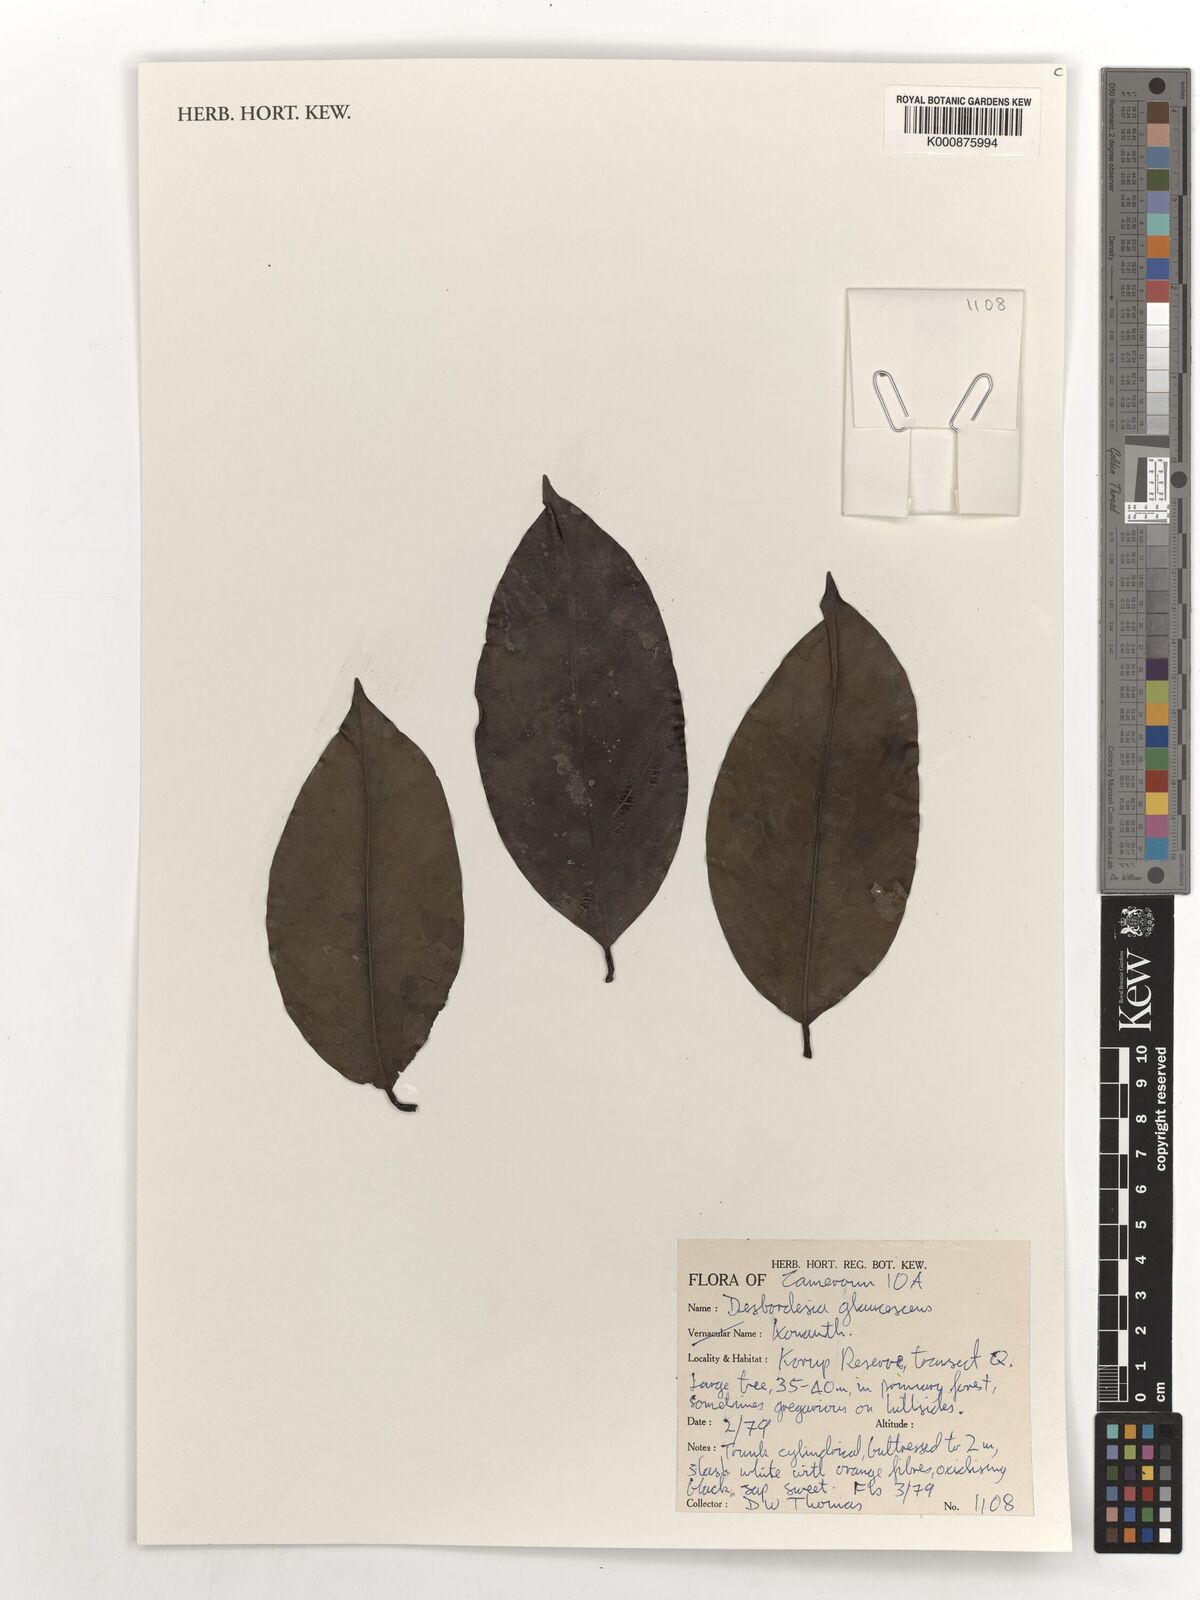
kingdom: Plantae
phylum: Tracheophyta
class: Magnoliopsida
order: Malpighiales
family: Irvingiaceae
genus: Desbordesia
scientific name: Desbordesia glaucescens
